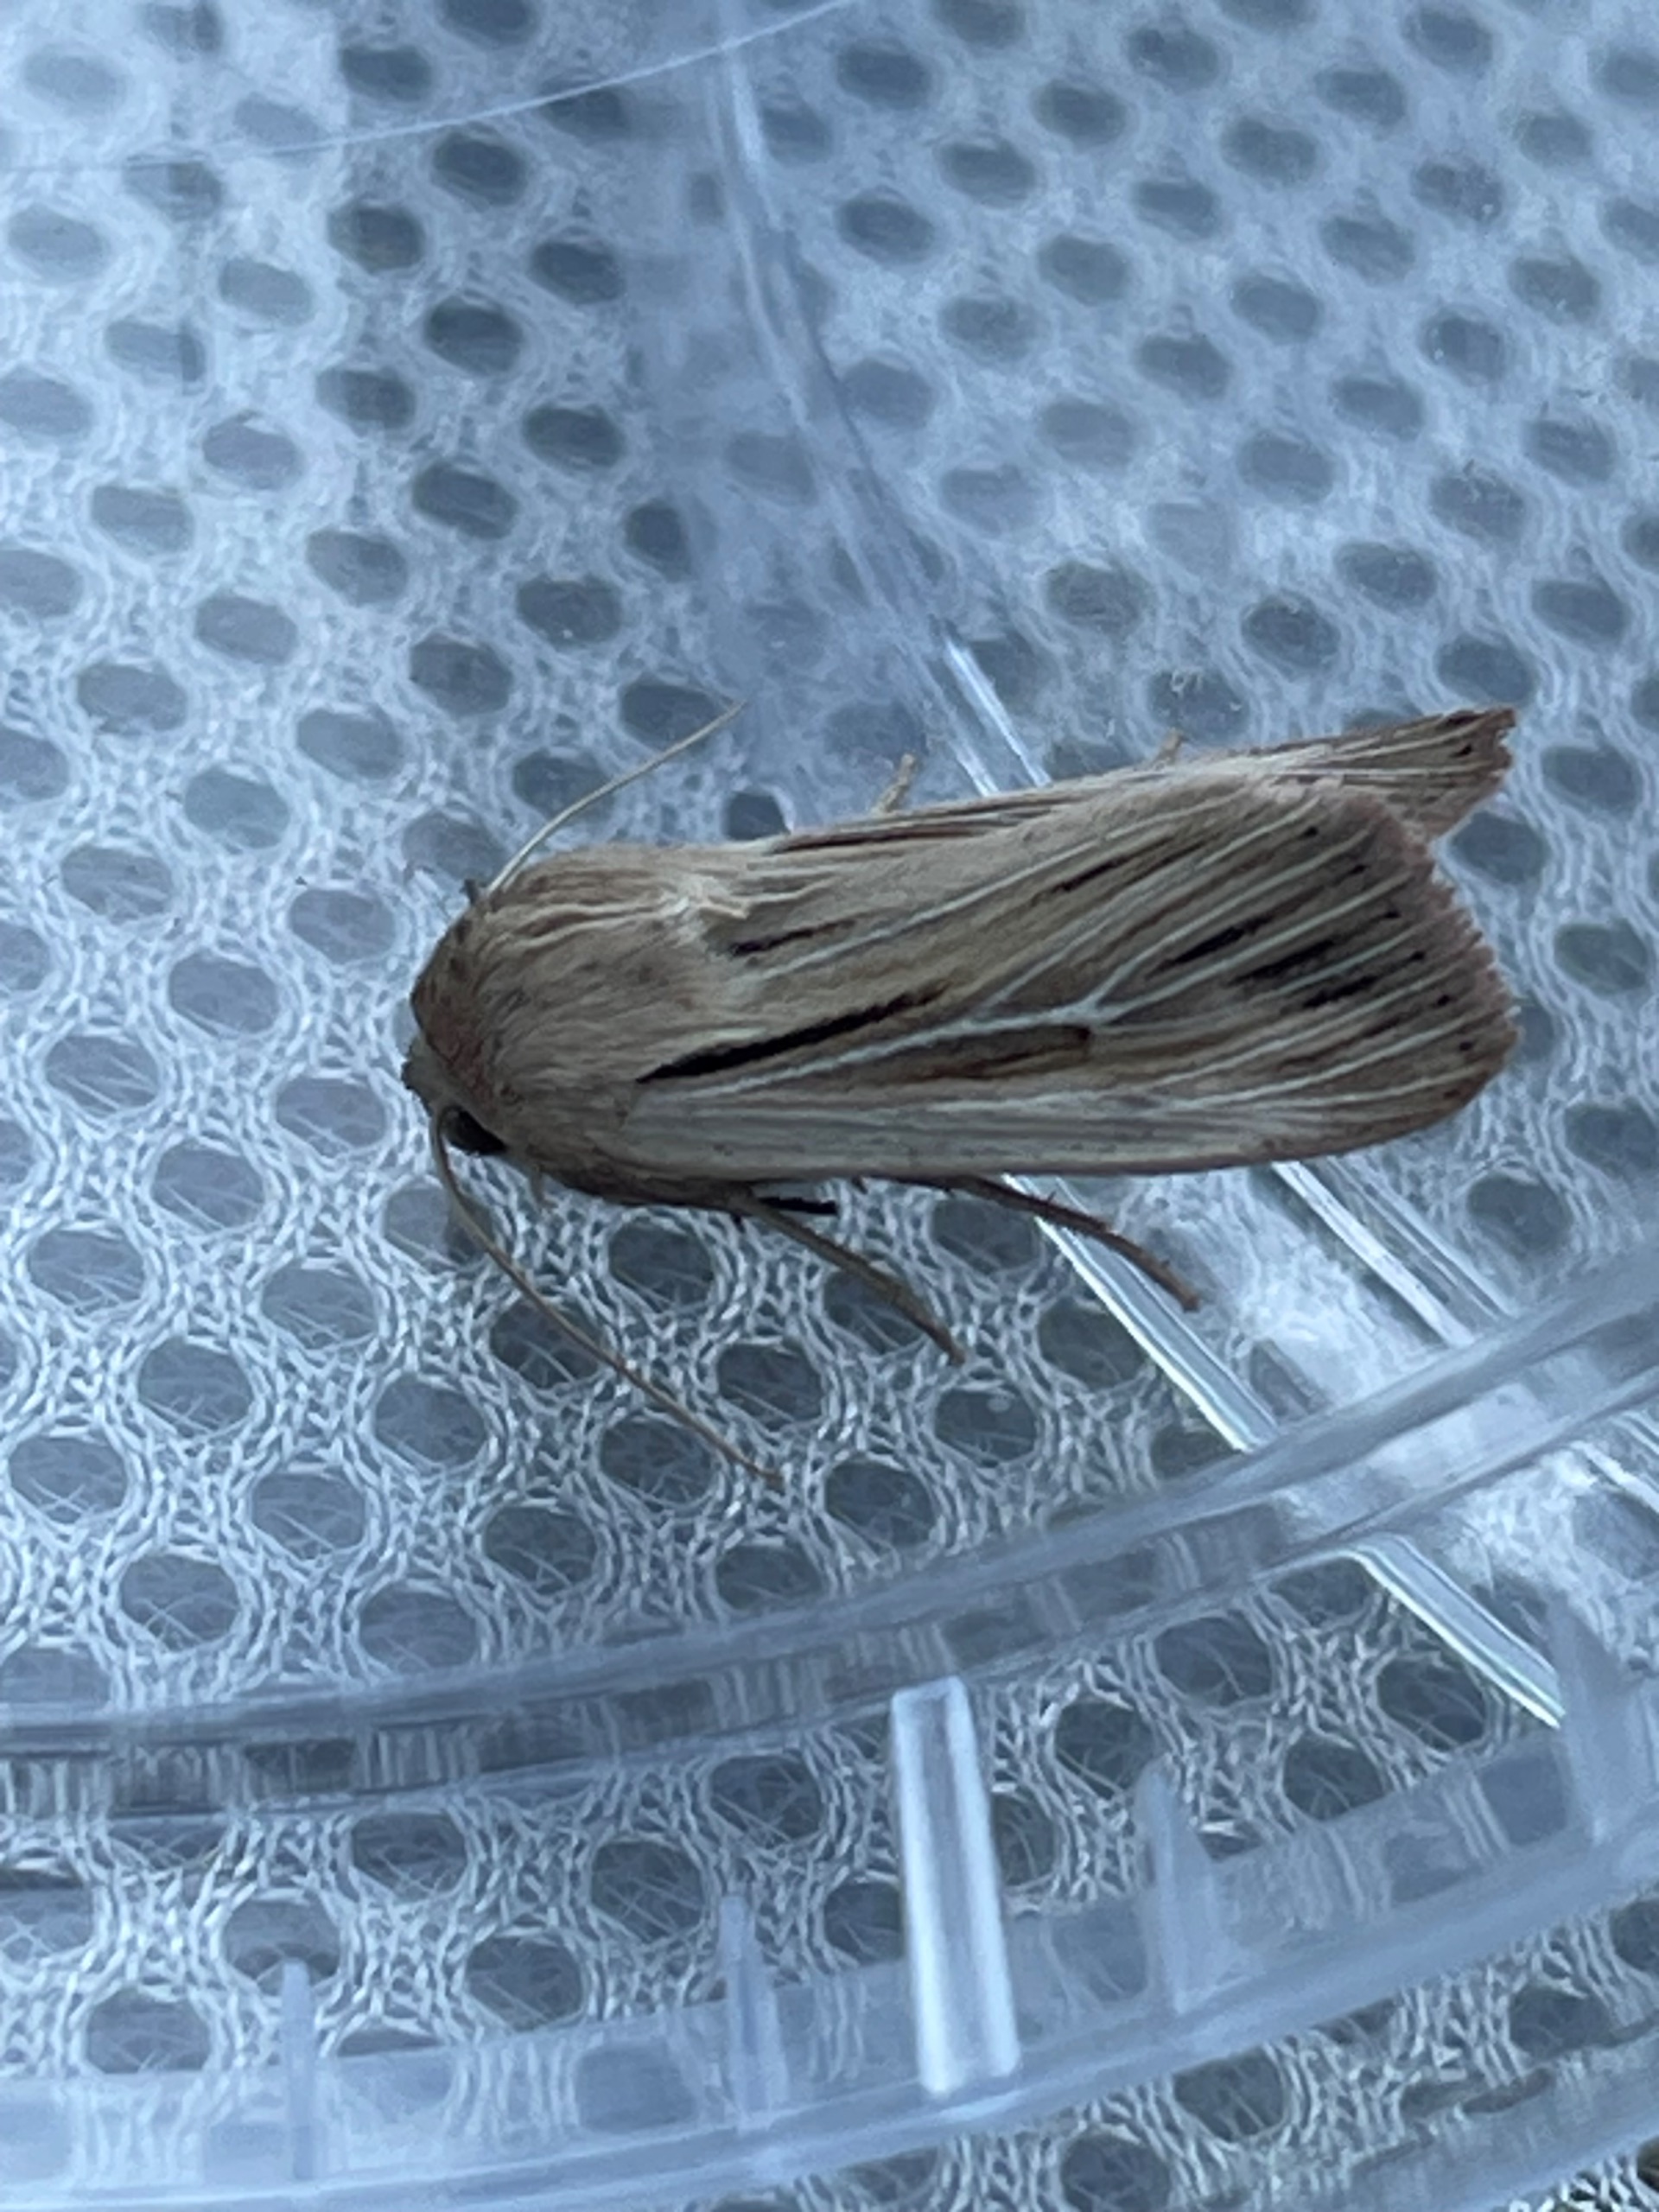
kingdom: Animalia
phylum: Arthropoda
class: Insecta
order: Lepidoptera
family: Noctuidae
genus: Leucania
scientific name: Leucania comma
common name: Kommaugle
